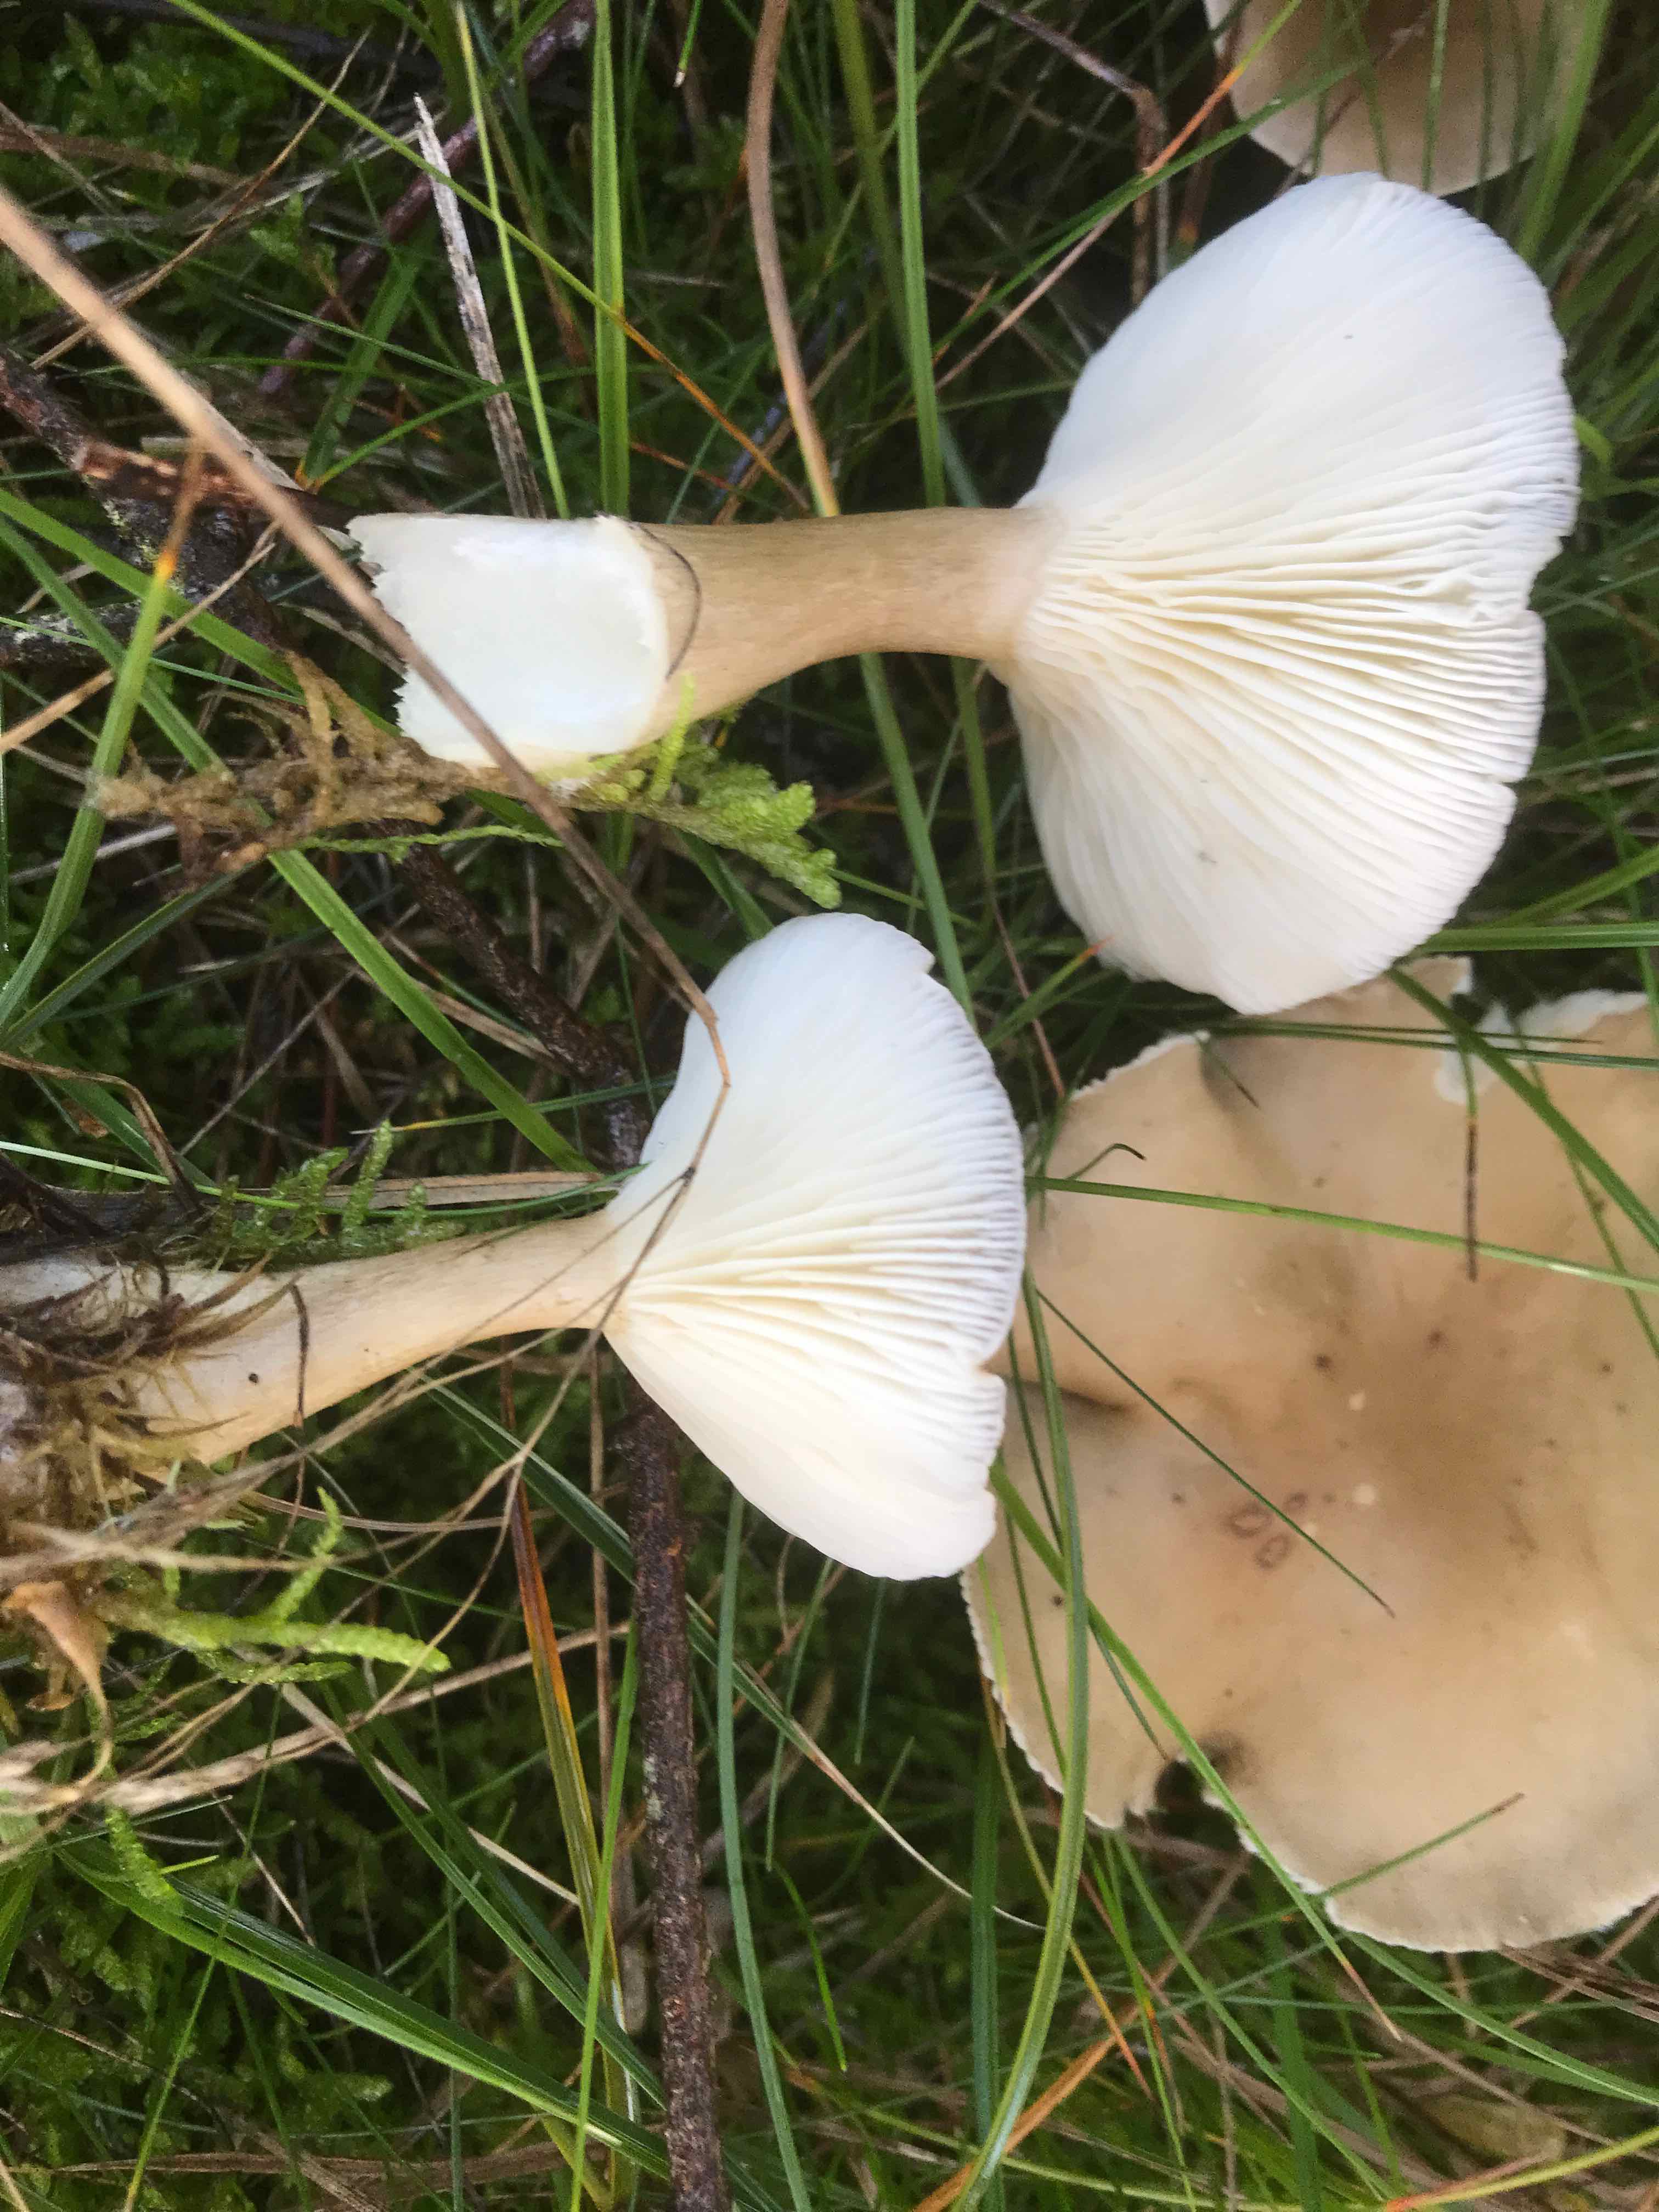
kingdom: Fungi
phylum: Basidiomycota
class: Agaricomycetes
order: Agaricales
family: Hygrophoraceae
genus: Ampulloclitocybe
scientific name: Ampulloclitocybe clavipes
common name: køllefod
